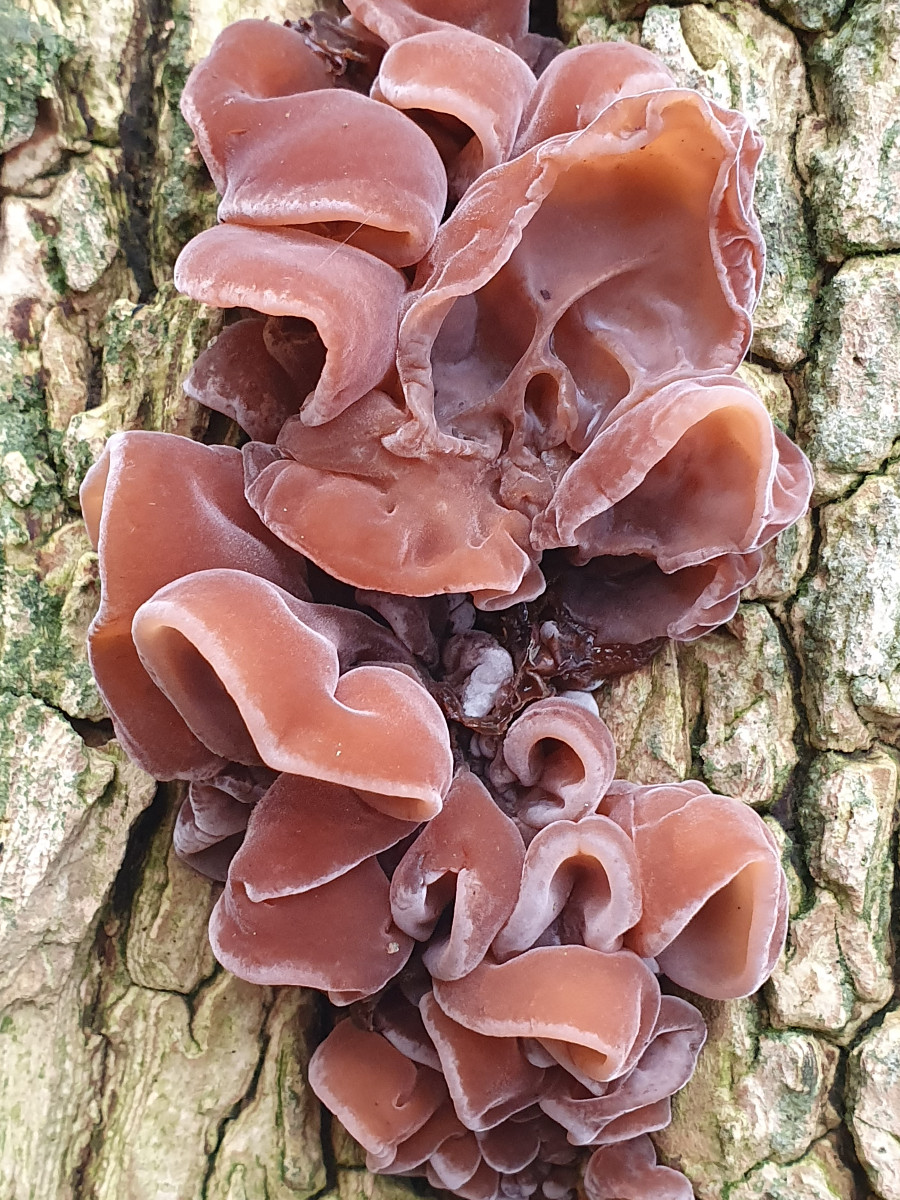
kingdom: Fungi
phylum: Basidiomycota
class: Agaricomycetes
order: Auriculariales
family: Auriculariaceae
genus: Auricularia
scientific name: Auricularia auricula-judae
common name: almindelig judasøre
